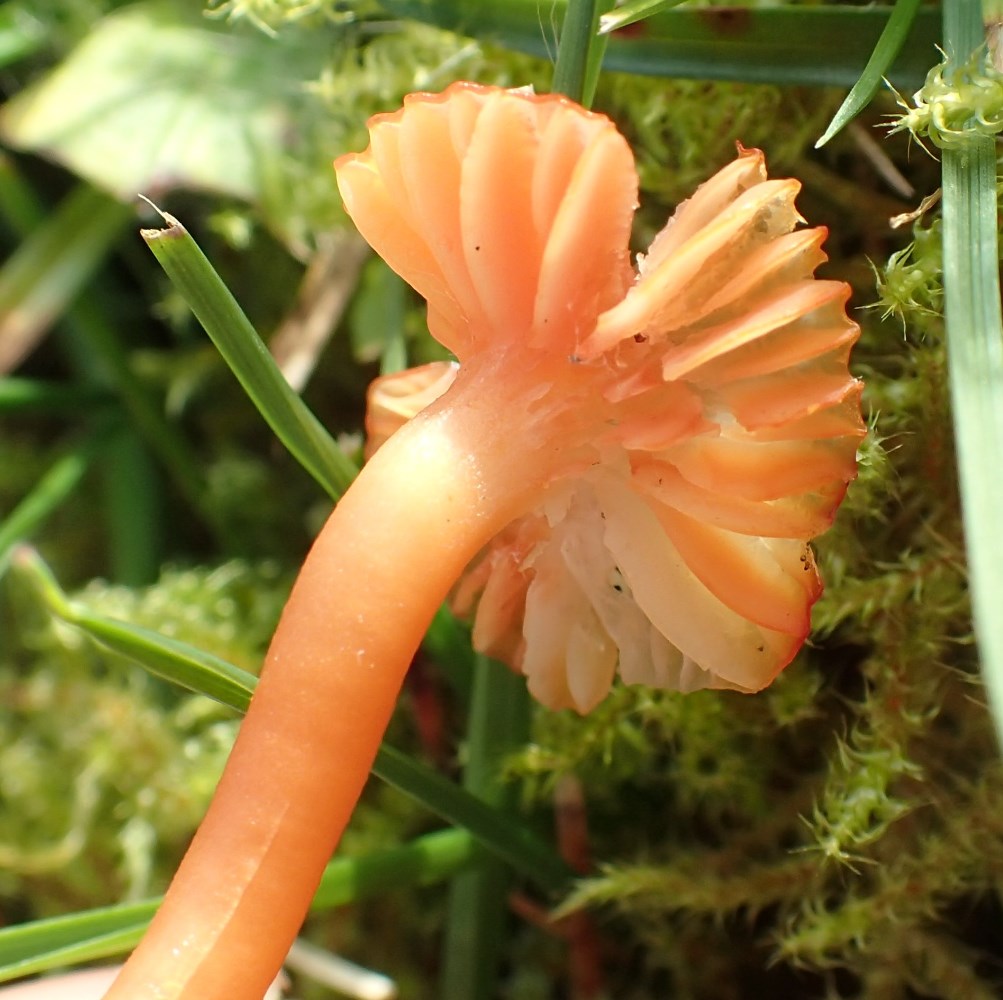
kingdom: Fungi
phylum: Basidiomycota
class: Agaricomycetes
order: Agaricales
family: Hygrophoraceae
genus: Hygrocybe
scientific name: Hygrocybe
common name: vokshat
